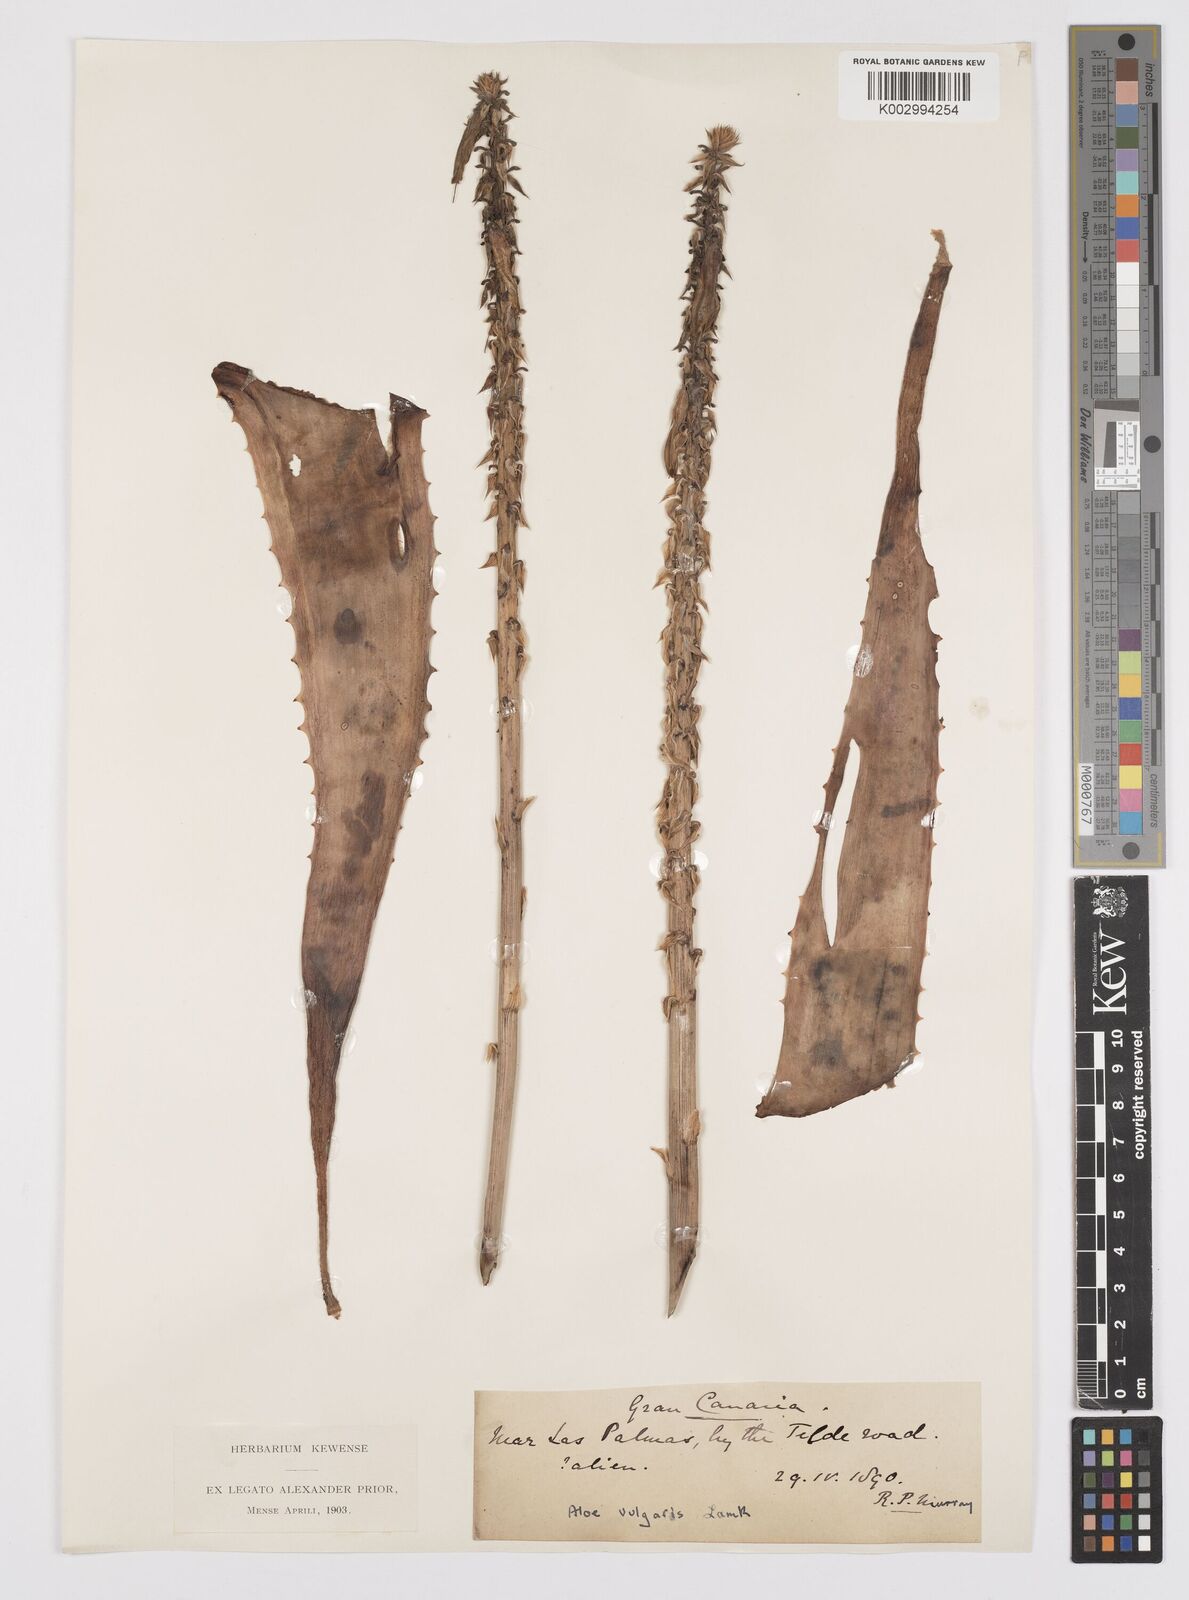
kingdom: Plantae
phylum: Tracheophyta
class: Liliopsida
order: Asparagales
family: Asphodelaceae
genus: Aloe
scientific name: Aloe vera
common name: Barbados aloe
